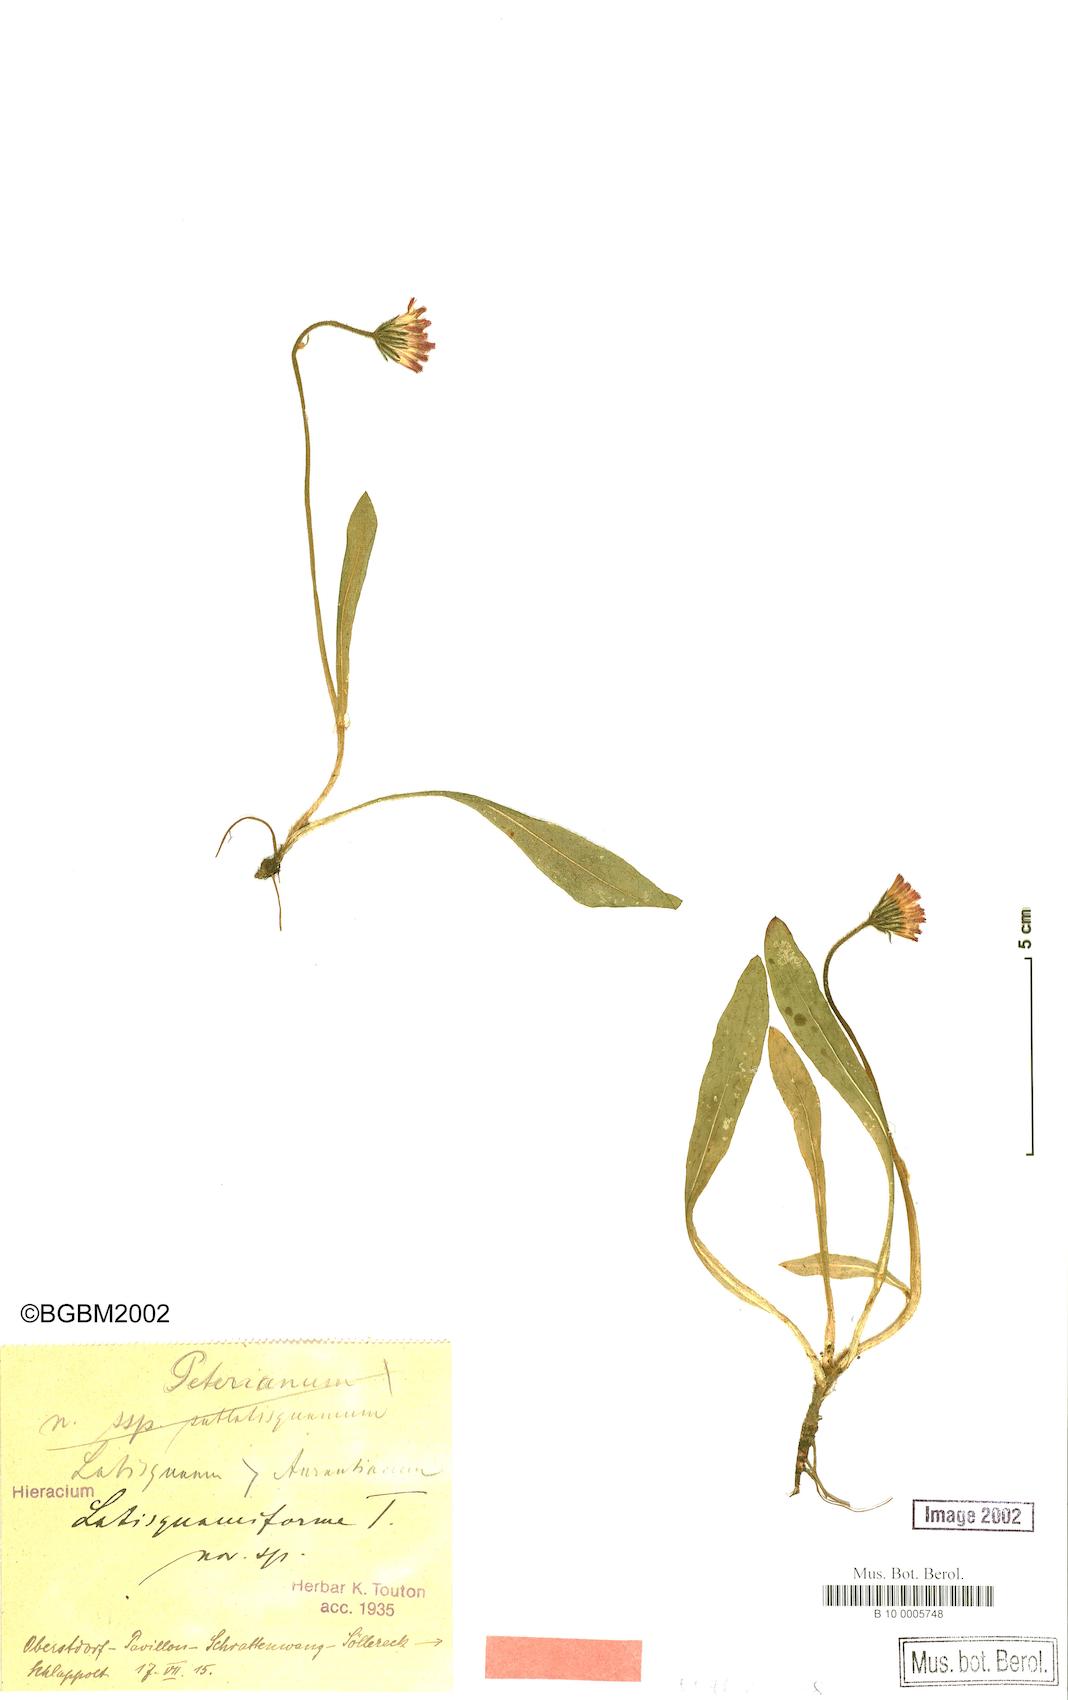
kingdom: Plantae
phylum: Tracheophyta
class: Magnoliopsida
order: Asterales
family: Asteraceae
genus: Pilosella
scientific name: Pilosella stoloniflora
